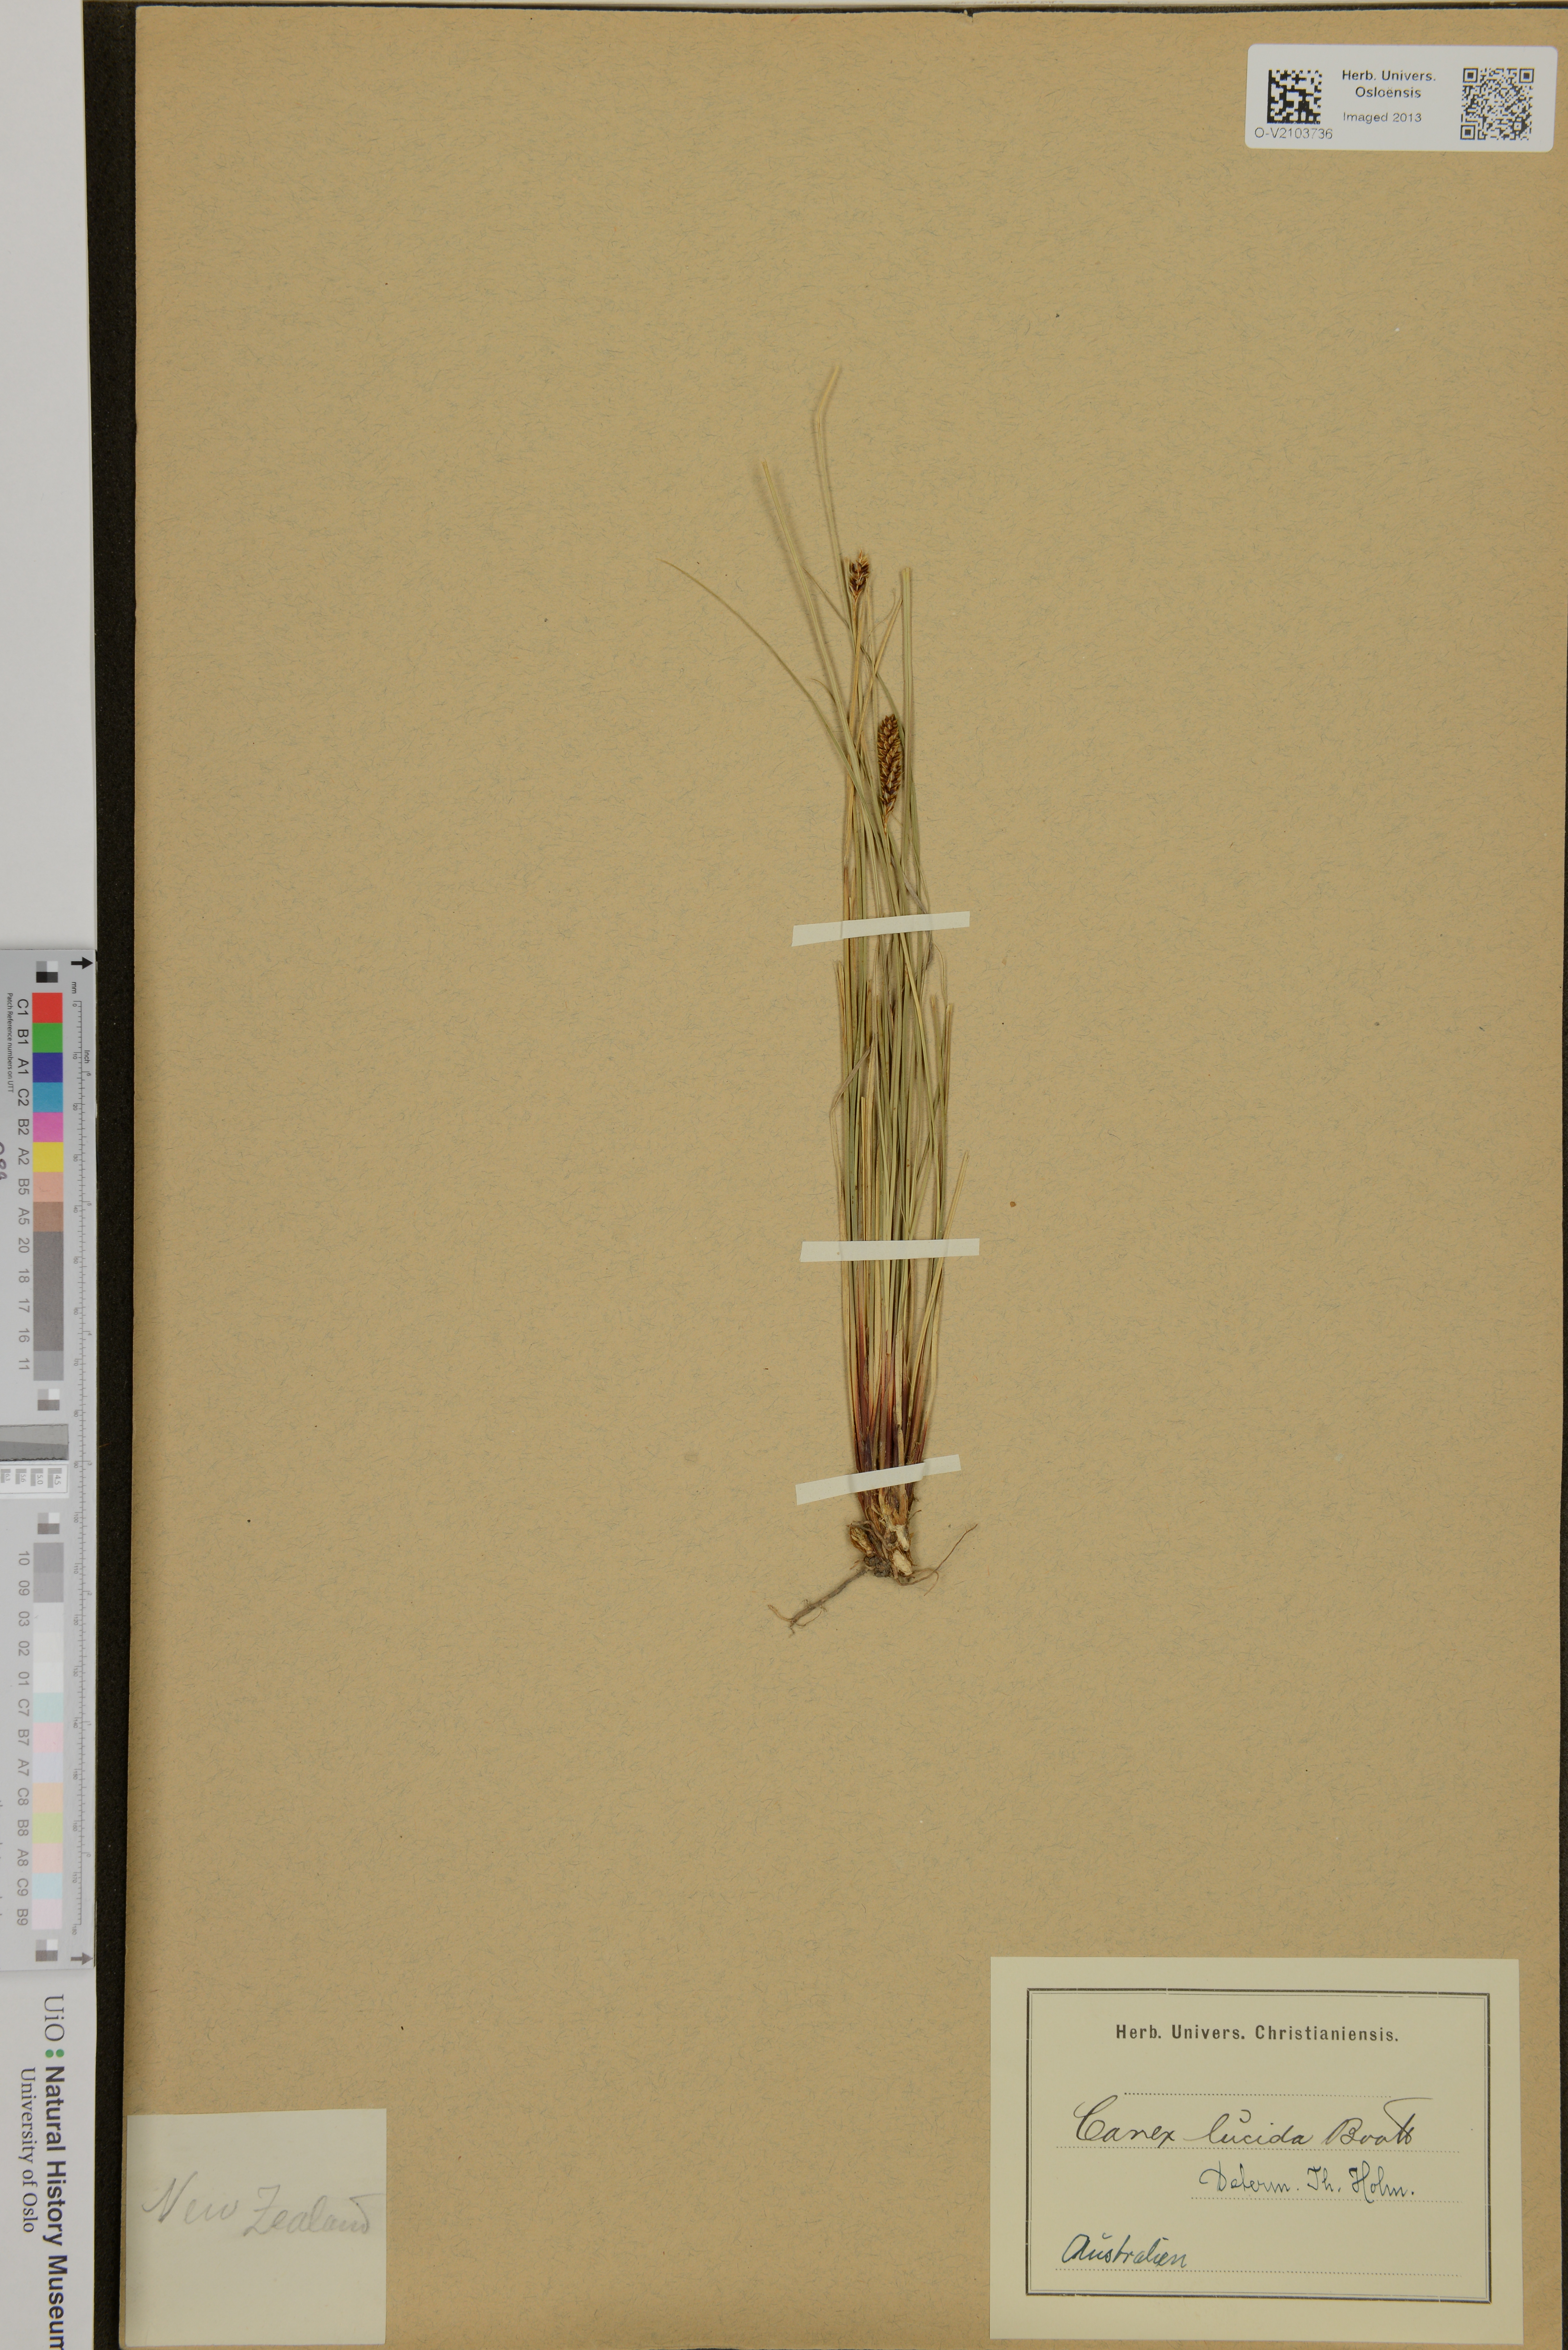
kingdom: Plantae
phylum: Tracheophyta
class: Liliopsida
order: Poales
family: Cyperaceae
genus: Carex
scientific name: Carex lucida
